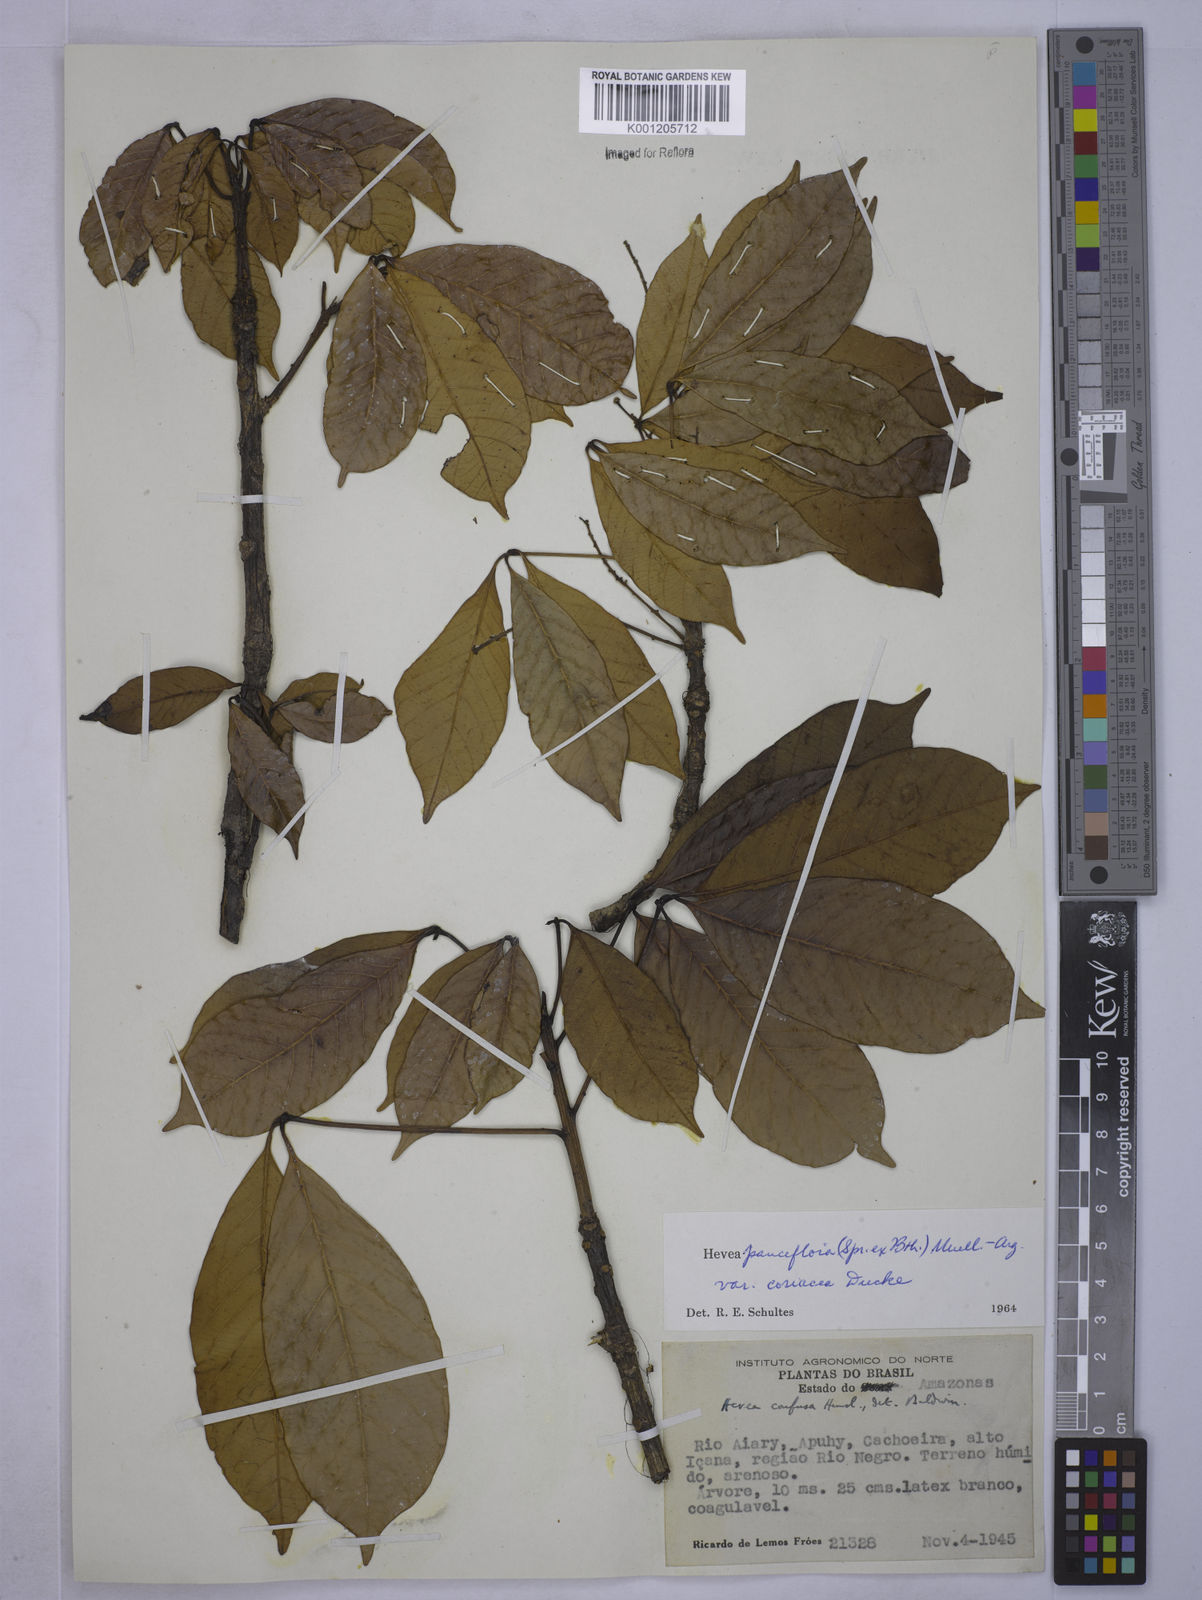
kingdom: Plantae
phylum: Tracheophyta
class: Magnoliopsida
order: Malpighiales
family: Euphorbiaceae
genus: Hevea
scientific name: Hevea pauciflora
